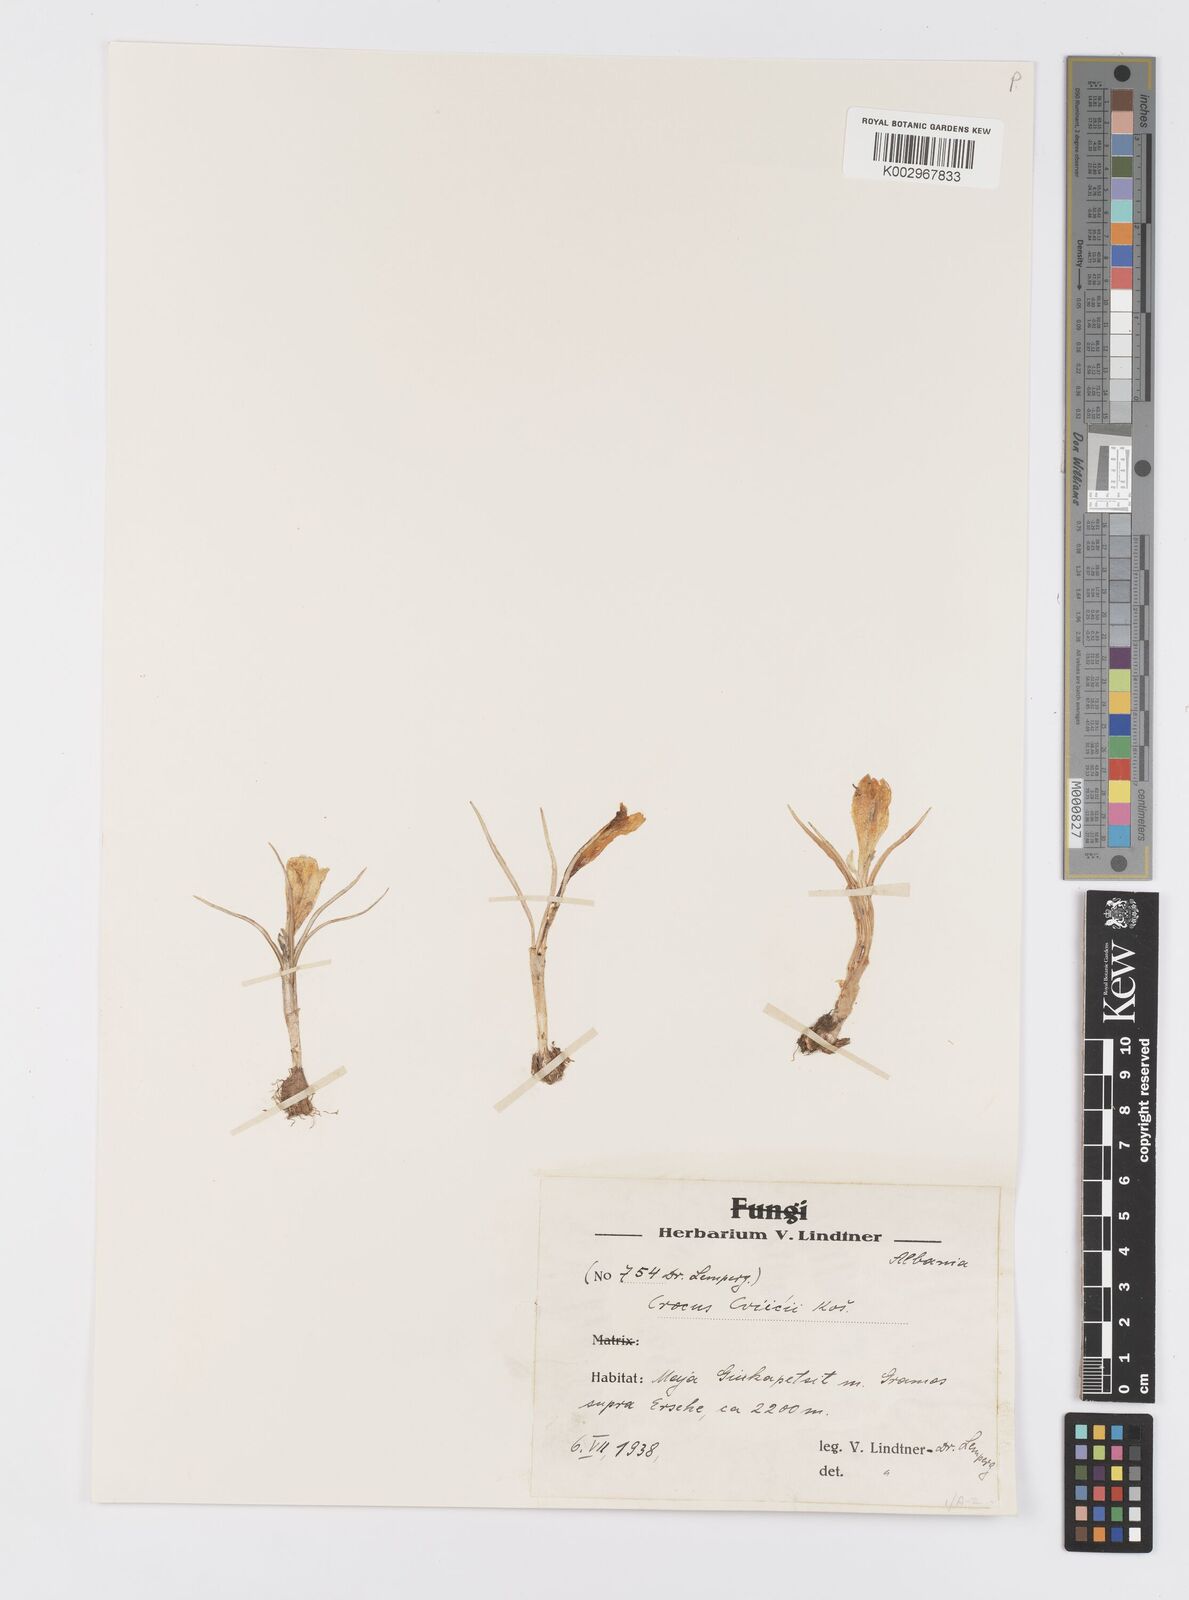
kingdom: Plantae
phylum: Tracheophyta
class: Liliopsida
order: Asparagales
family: Iridaceae
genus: Crocus
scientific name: Crocus cvijicii
